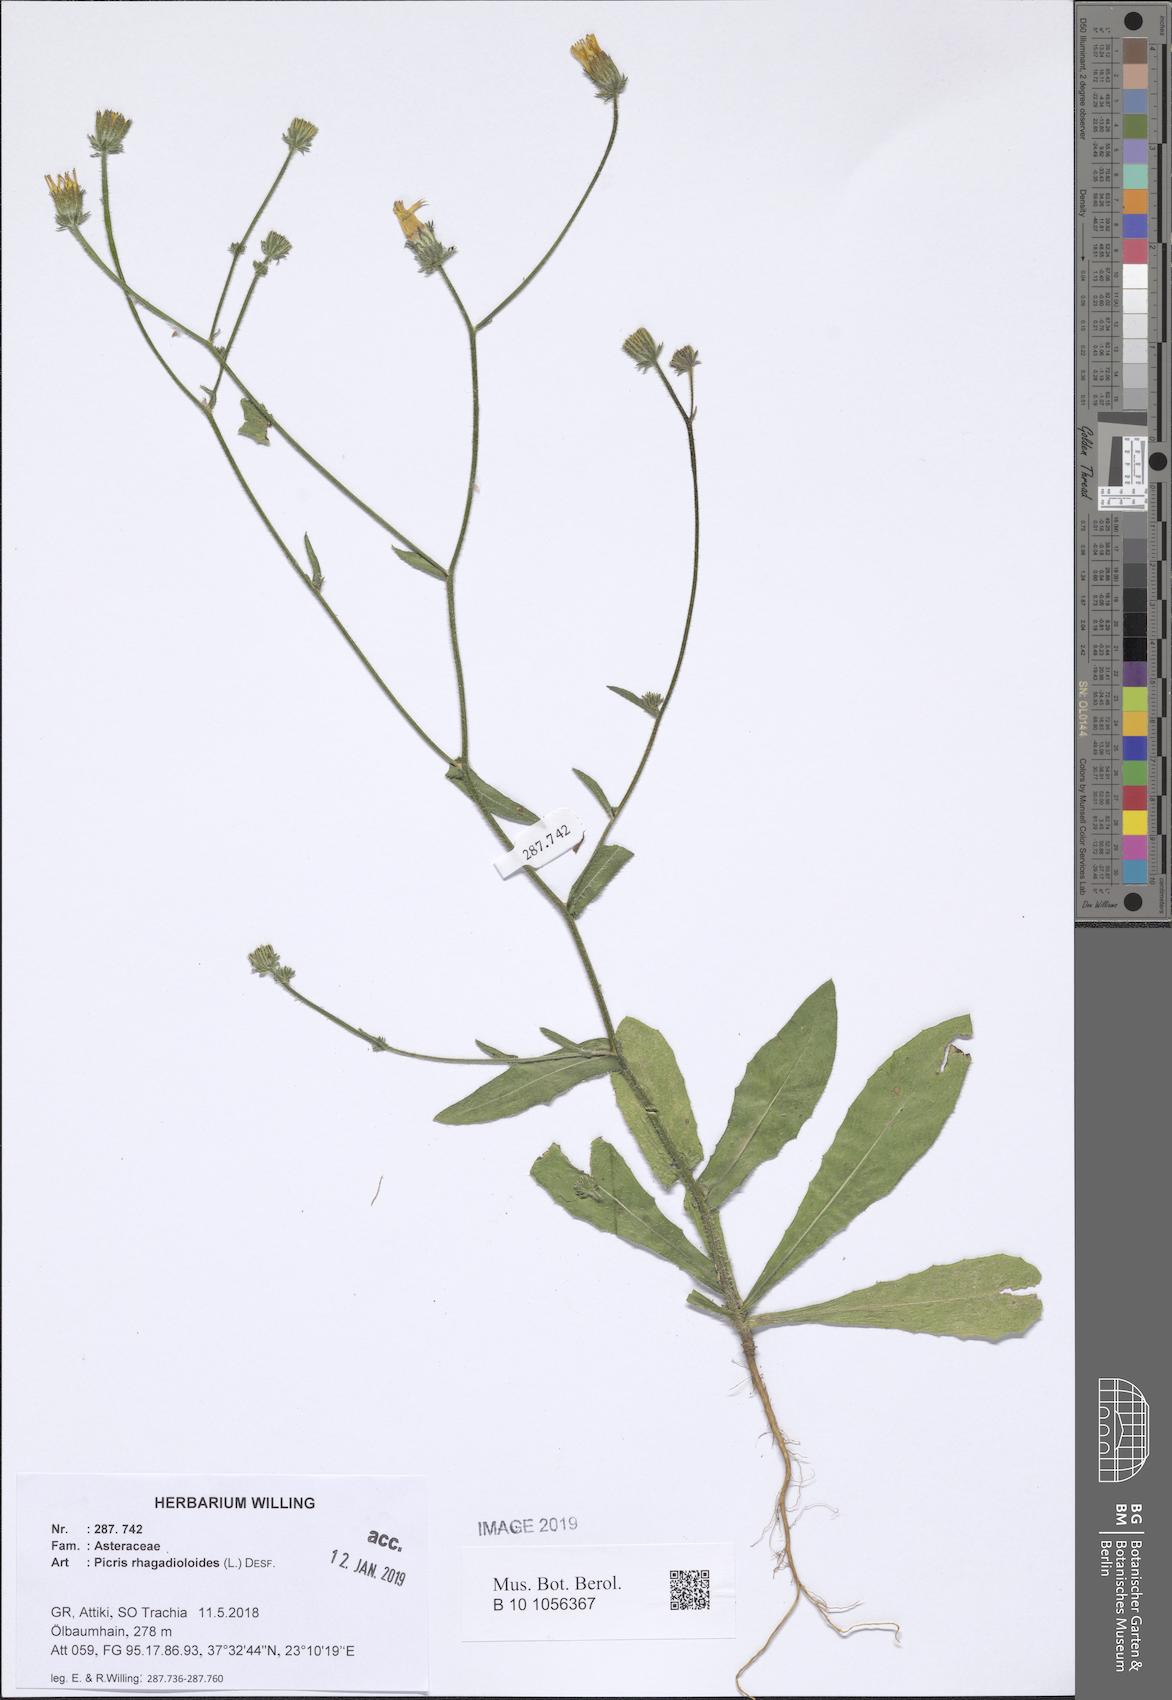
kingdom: Plantae
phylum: Tracheophyta
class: Magnoliopsida
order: Asterales
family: Asteraceae
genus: Picris
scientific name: Picris rhagadioloides
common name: Oxtongue
